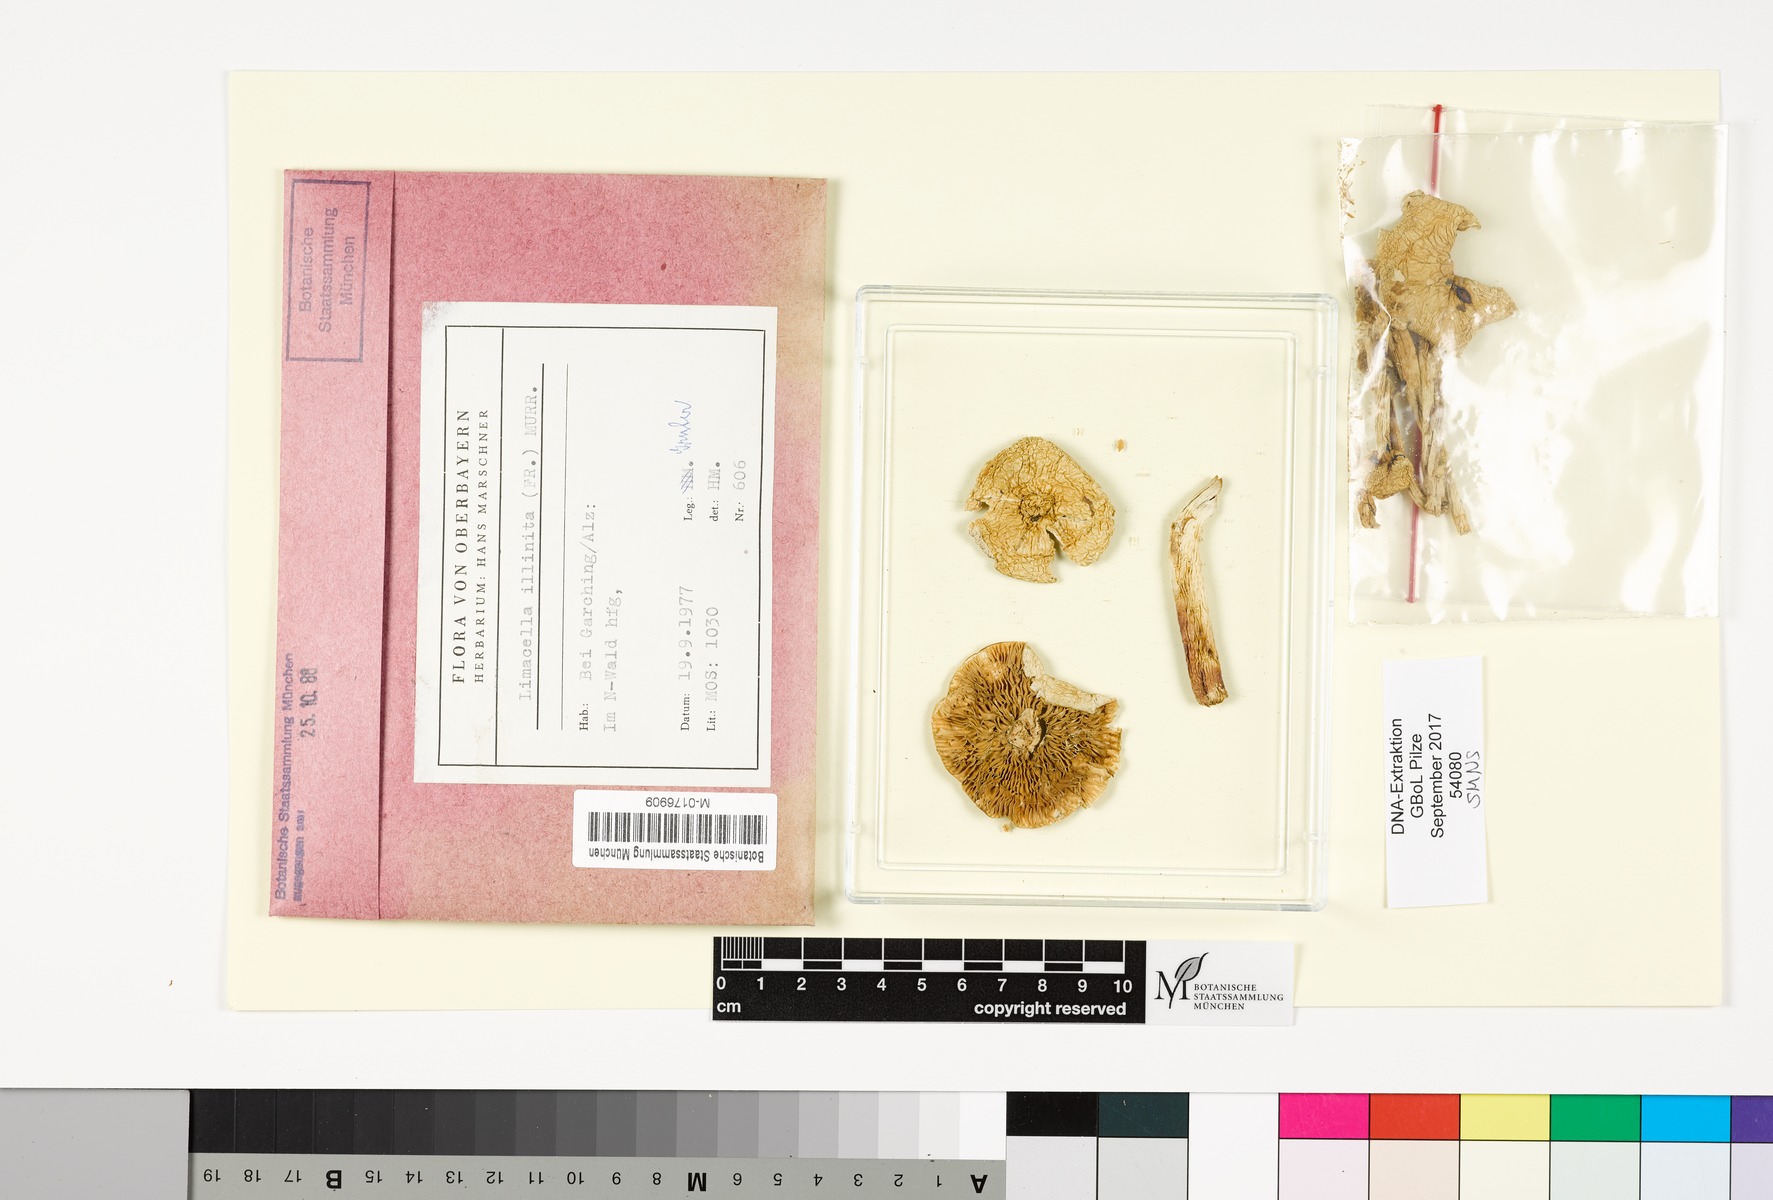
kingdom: Fungi
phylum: Basidiomycota
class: Agaricomycetes
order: Agaricales
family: Amanitaceae
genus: Zhuliangomyces
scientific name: Zhuliangomyces illinitus
